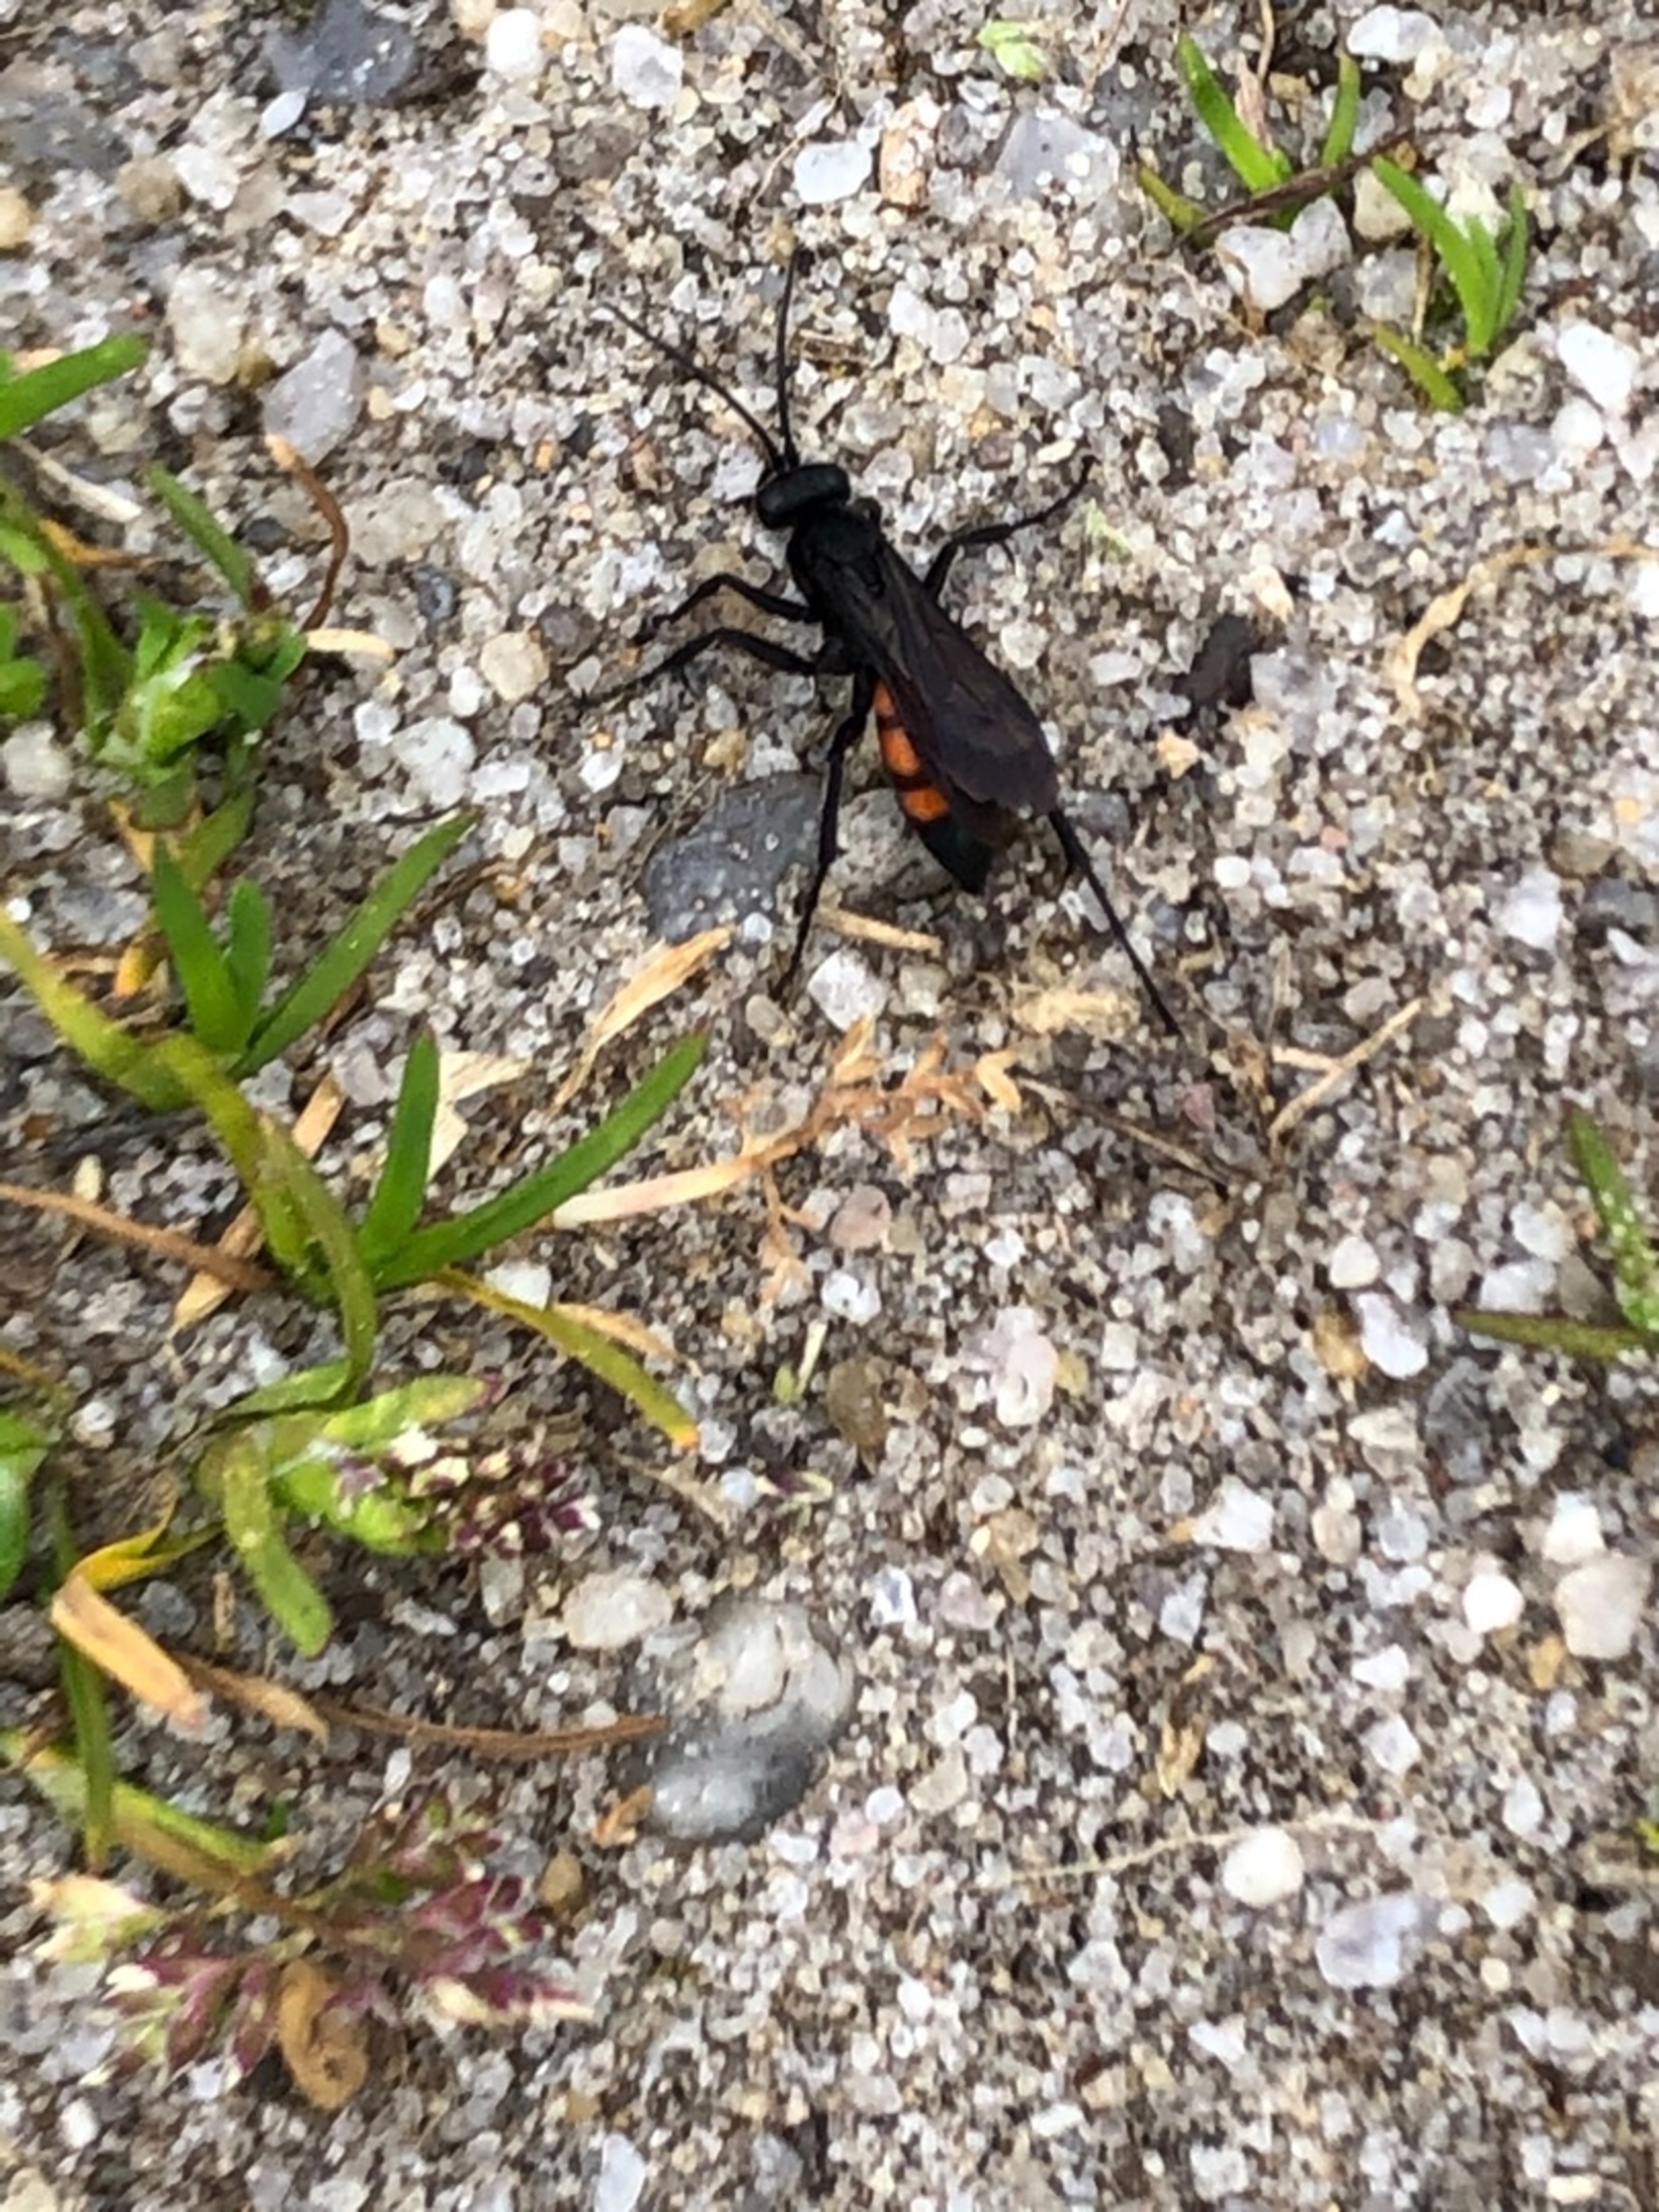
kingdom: Animalia
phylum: Arthropoda
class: Insecta
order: Hymenoptera
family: Pompilidae
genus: Anoplius
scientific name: Anoplius viaticus
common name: Almindelig vejhveps
